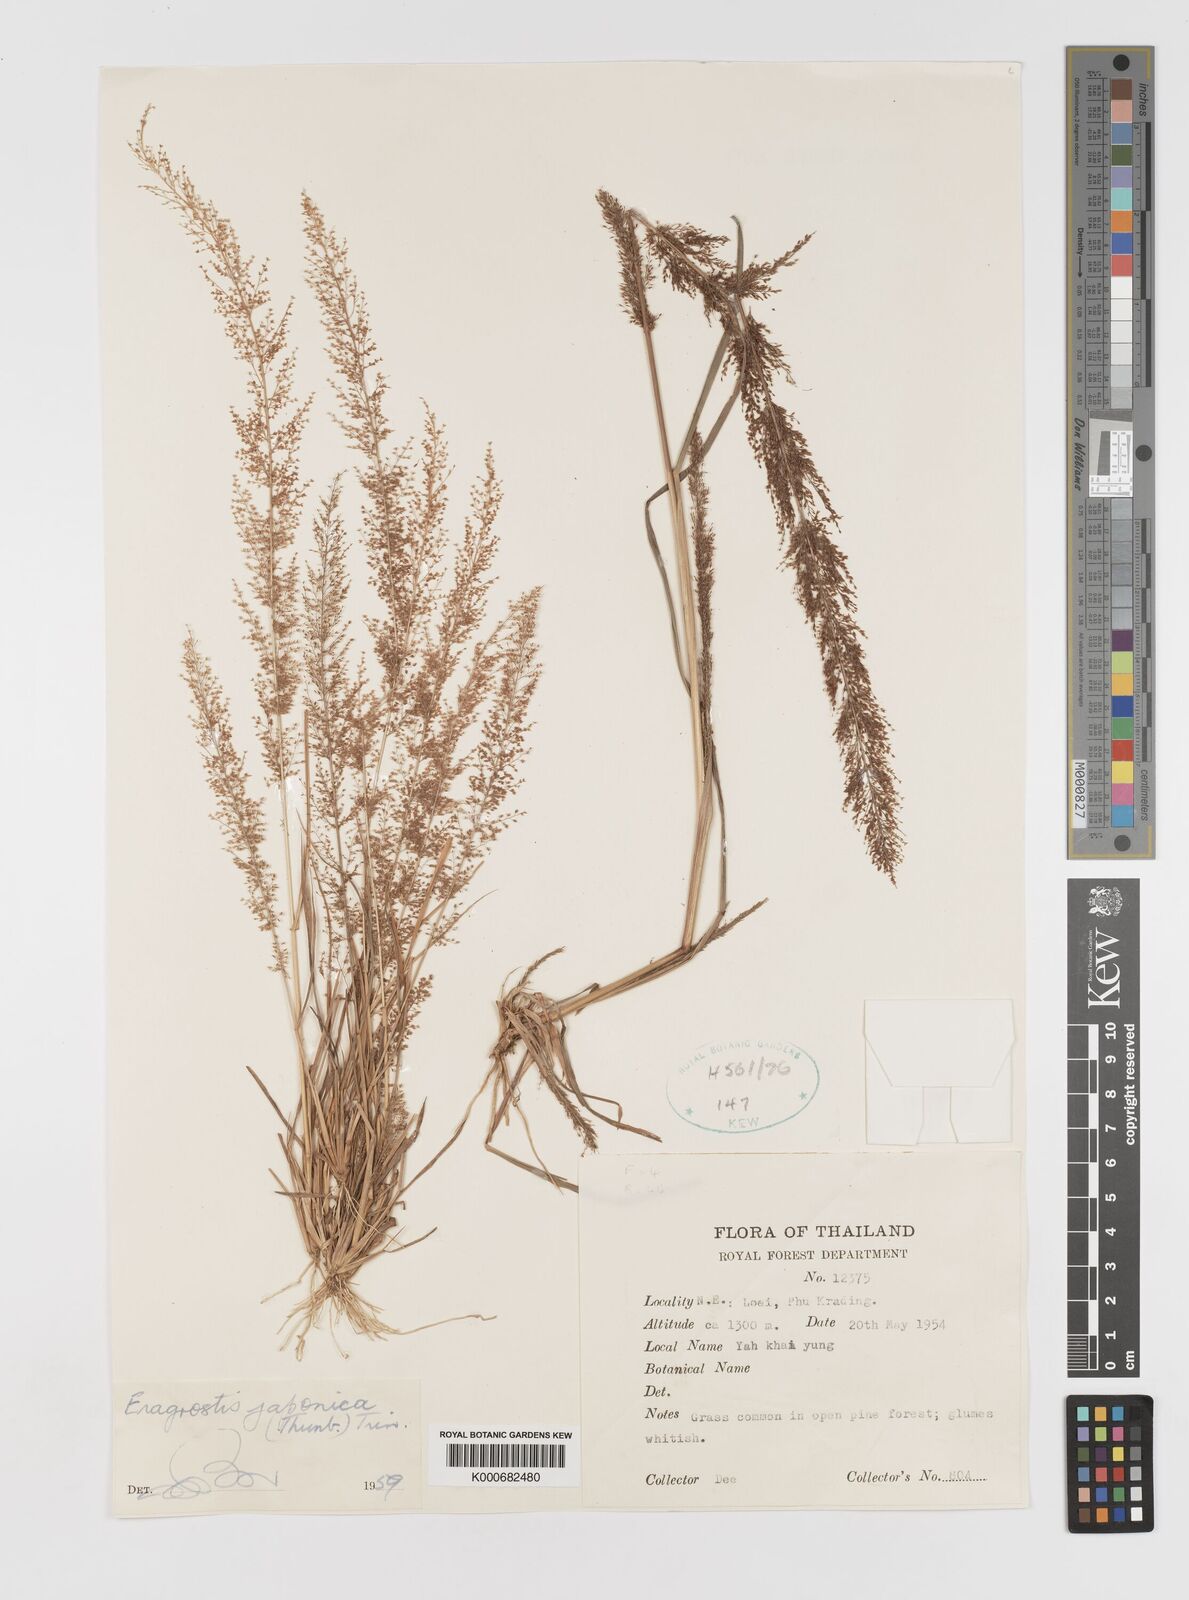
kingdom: Plantae
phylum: Tracheophyta
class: Liliopsida
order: Poales
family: Poaceae
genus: Eragrostis
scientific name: Eragrostis japonica
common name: Pond lovegrass
